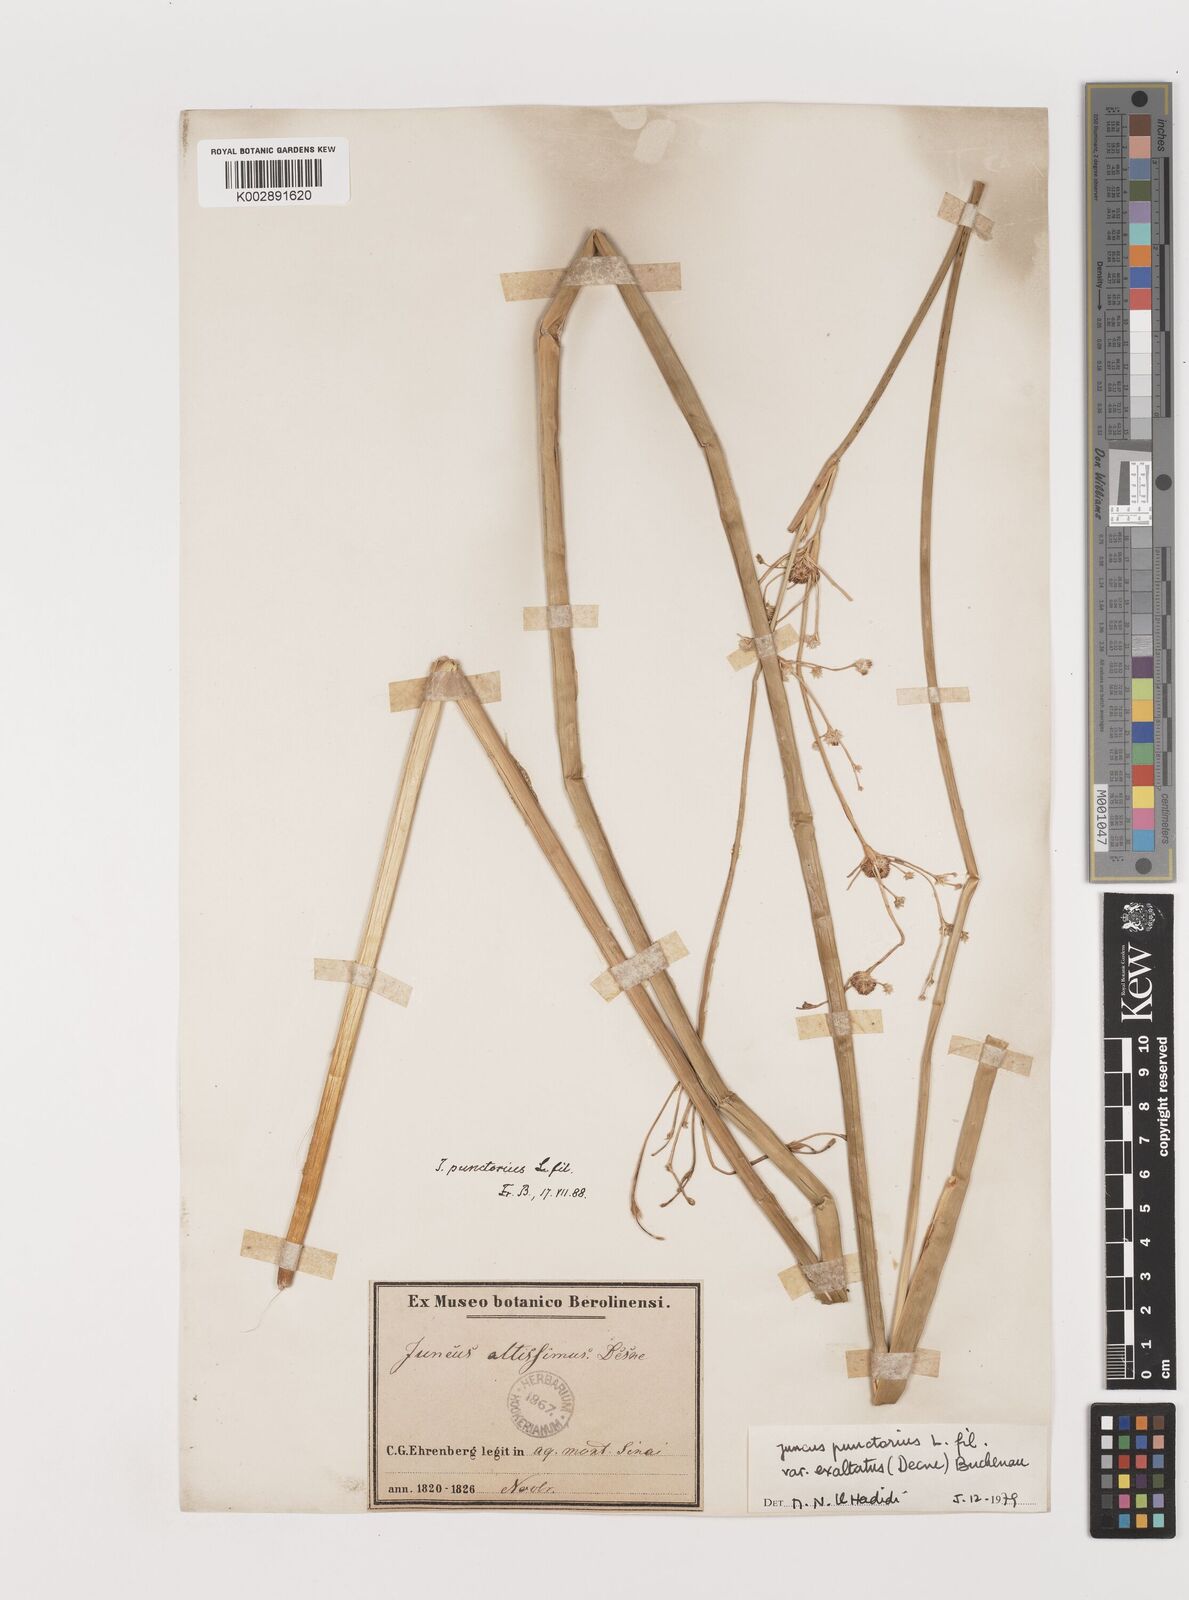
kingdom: Plantae
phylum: Tracheophyta
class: Liliopsida
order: Poales
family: Juncaceae
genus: Juncus
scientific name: Juncus punctorius
